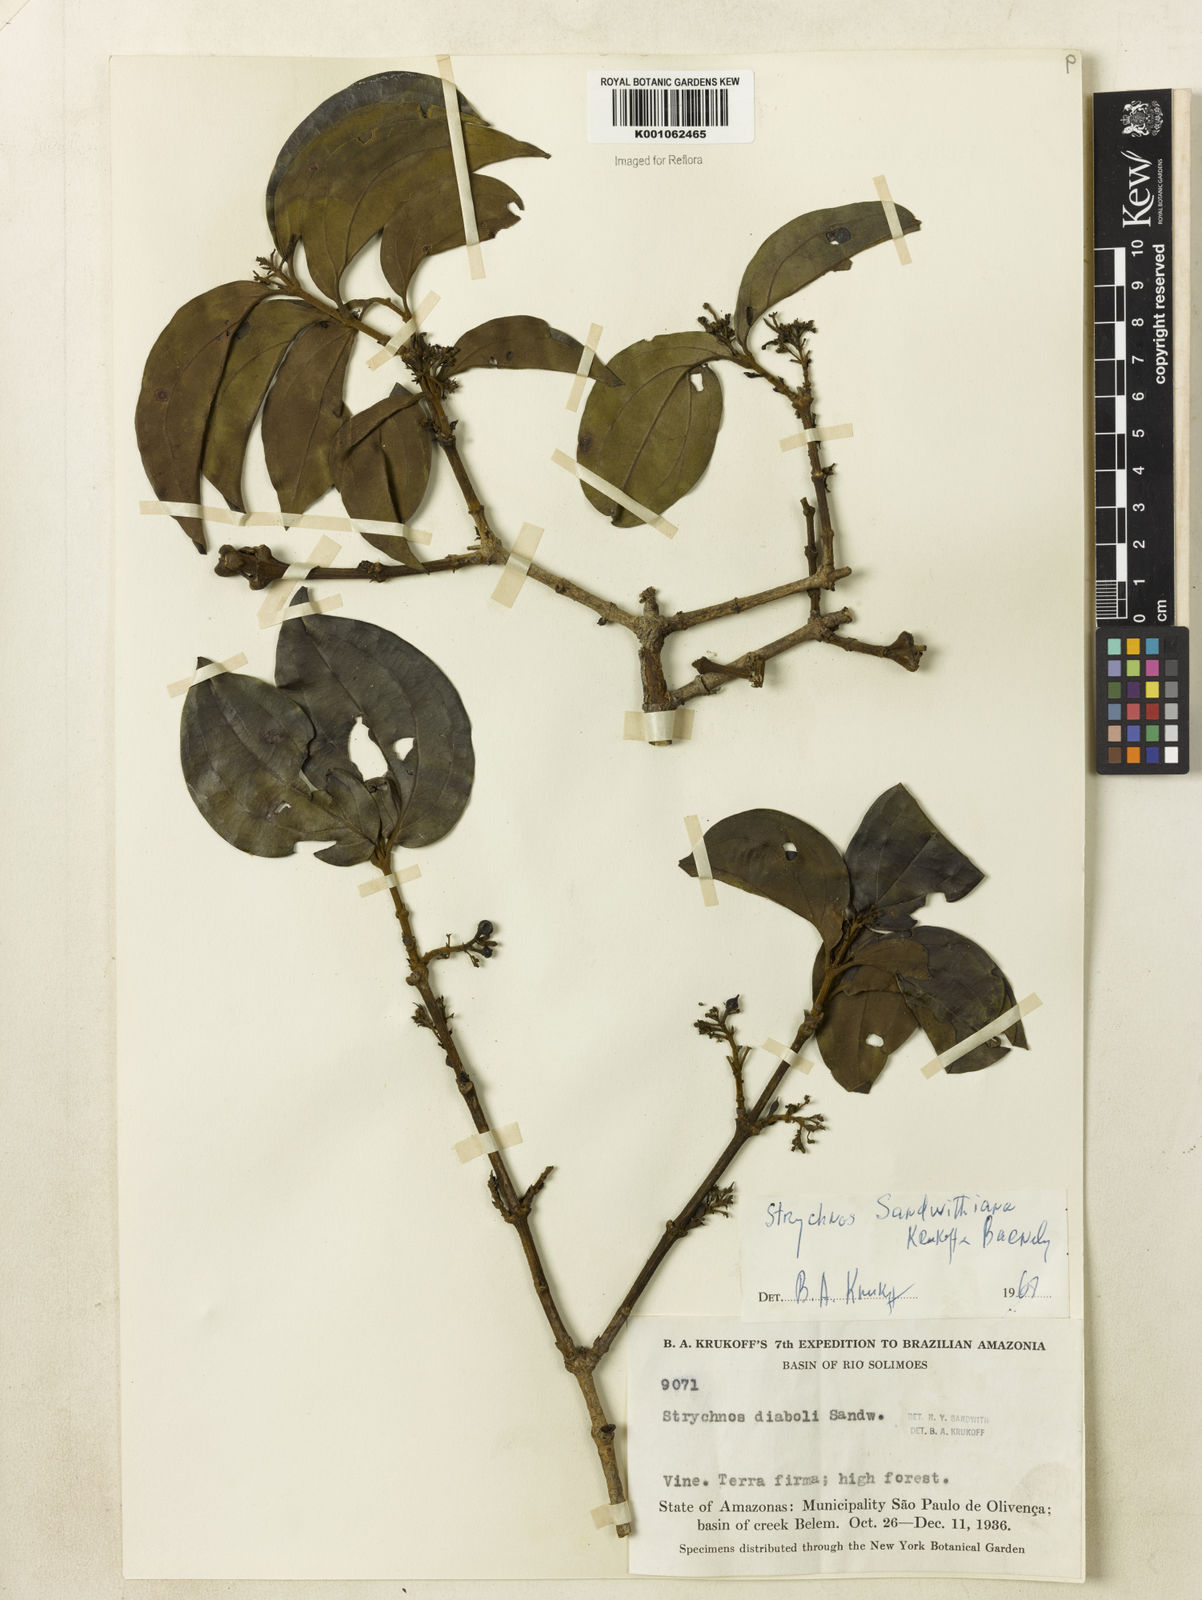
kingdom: Plantae
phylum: Tracheophyta
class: Magnoliopsida
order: Gentianales
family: Loganiaceae
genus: Strychnos
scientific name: Strychnos sandwithiana
